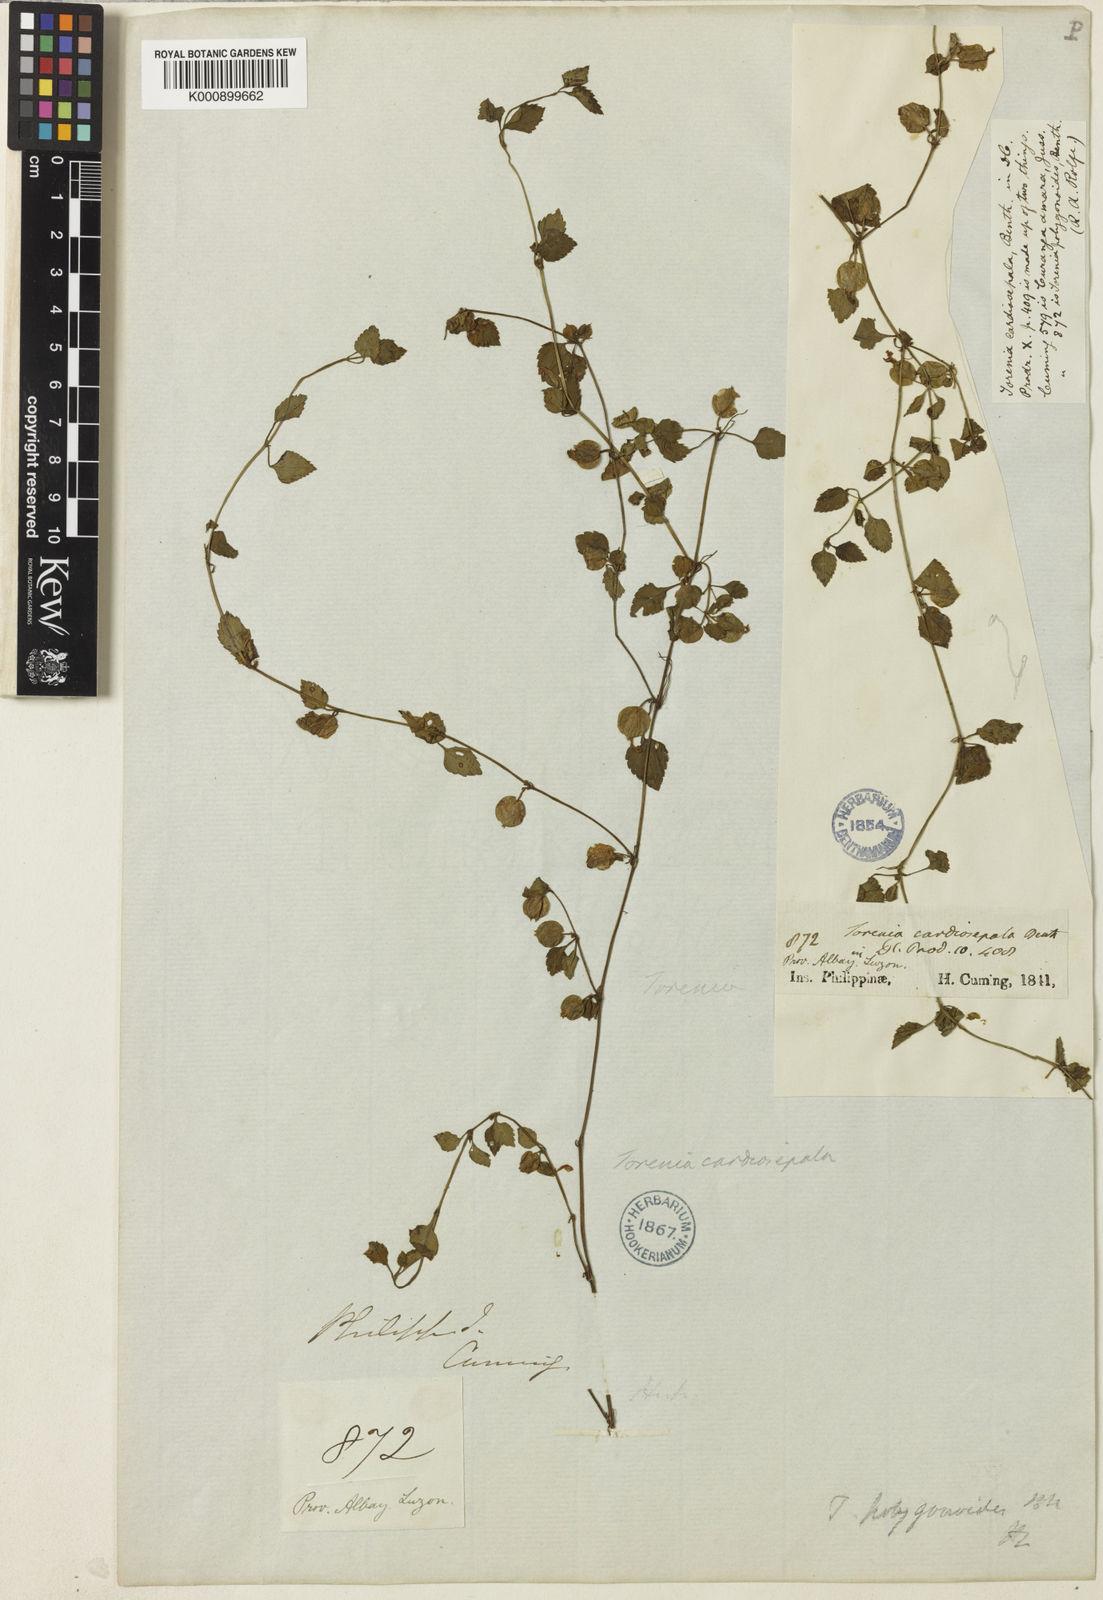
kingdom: Plantae
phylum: Tracheophyta
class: Magnoliopsida
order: Lamiales
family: Linderniaceae
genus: Legazpia
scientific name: Legazpia polygonoides
